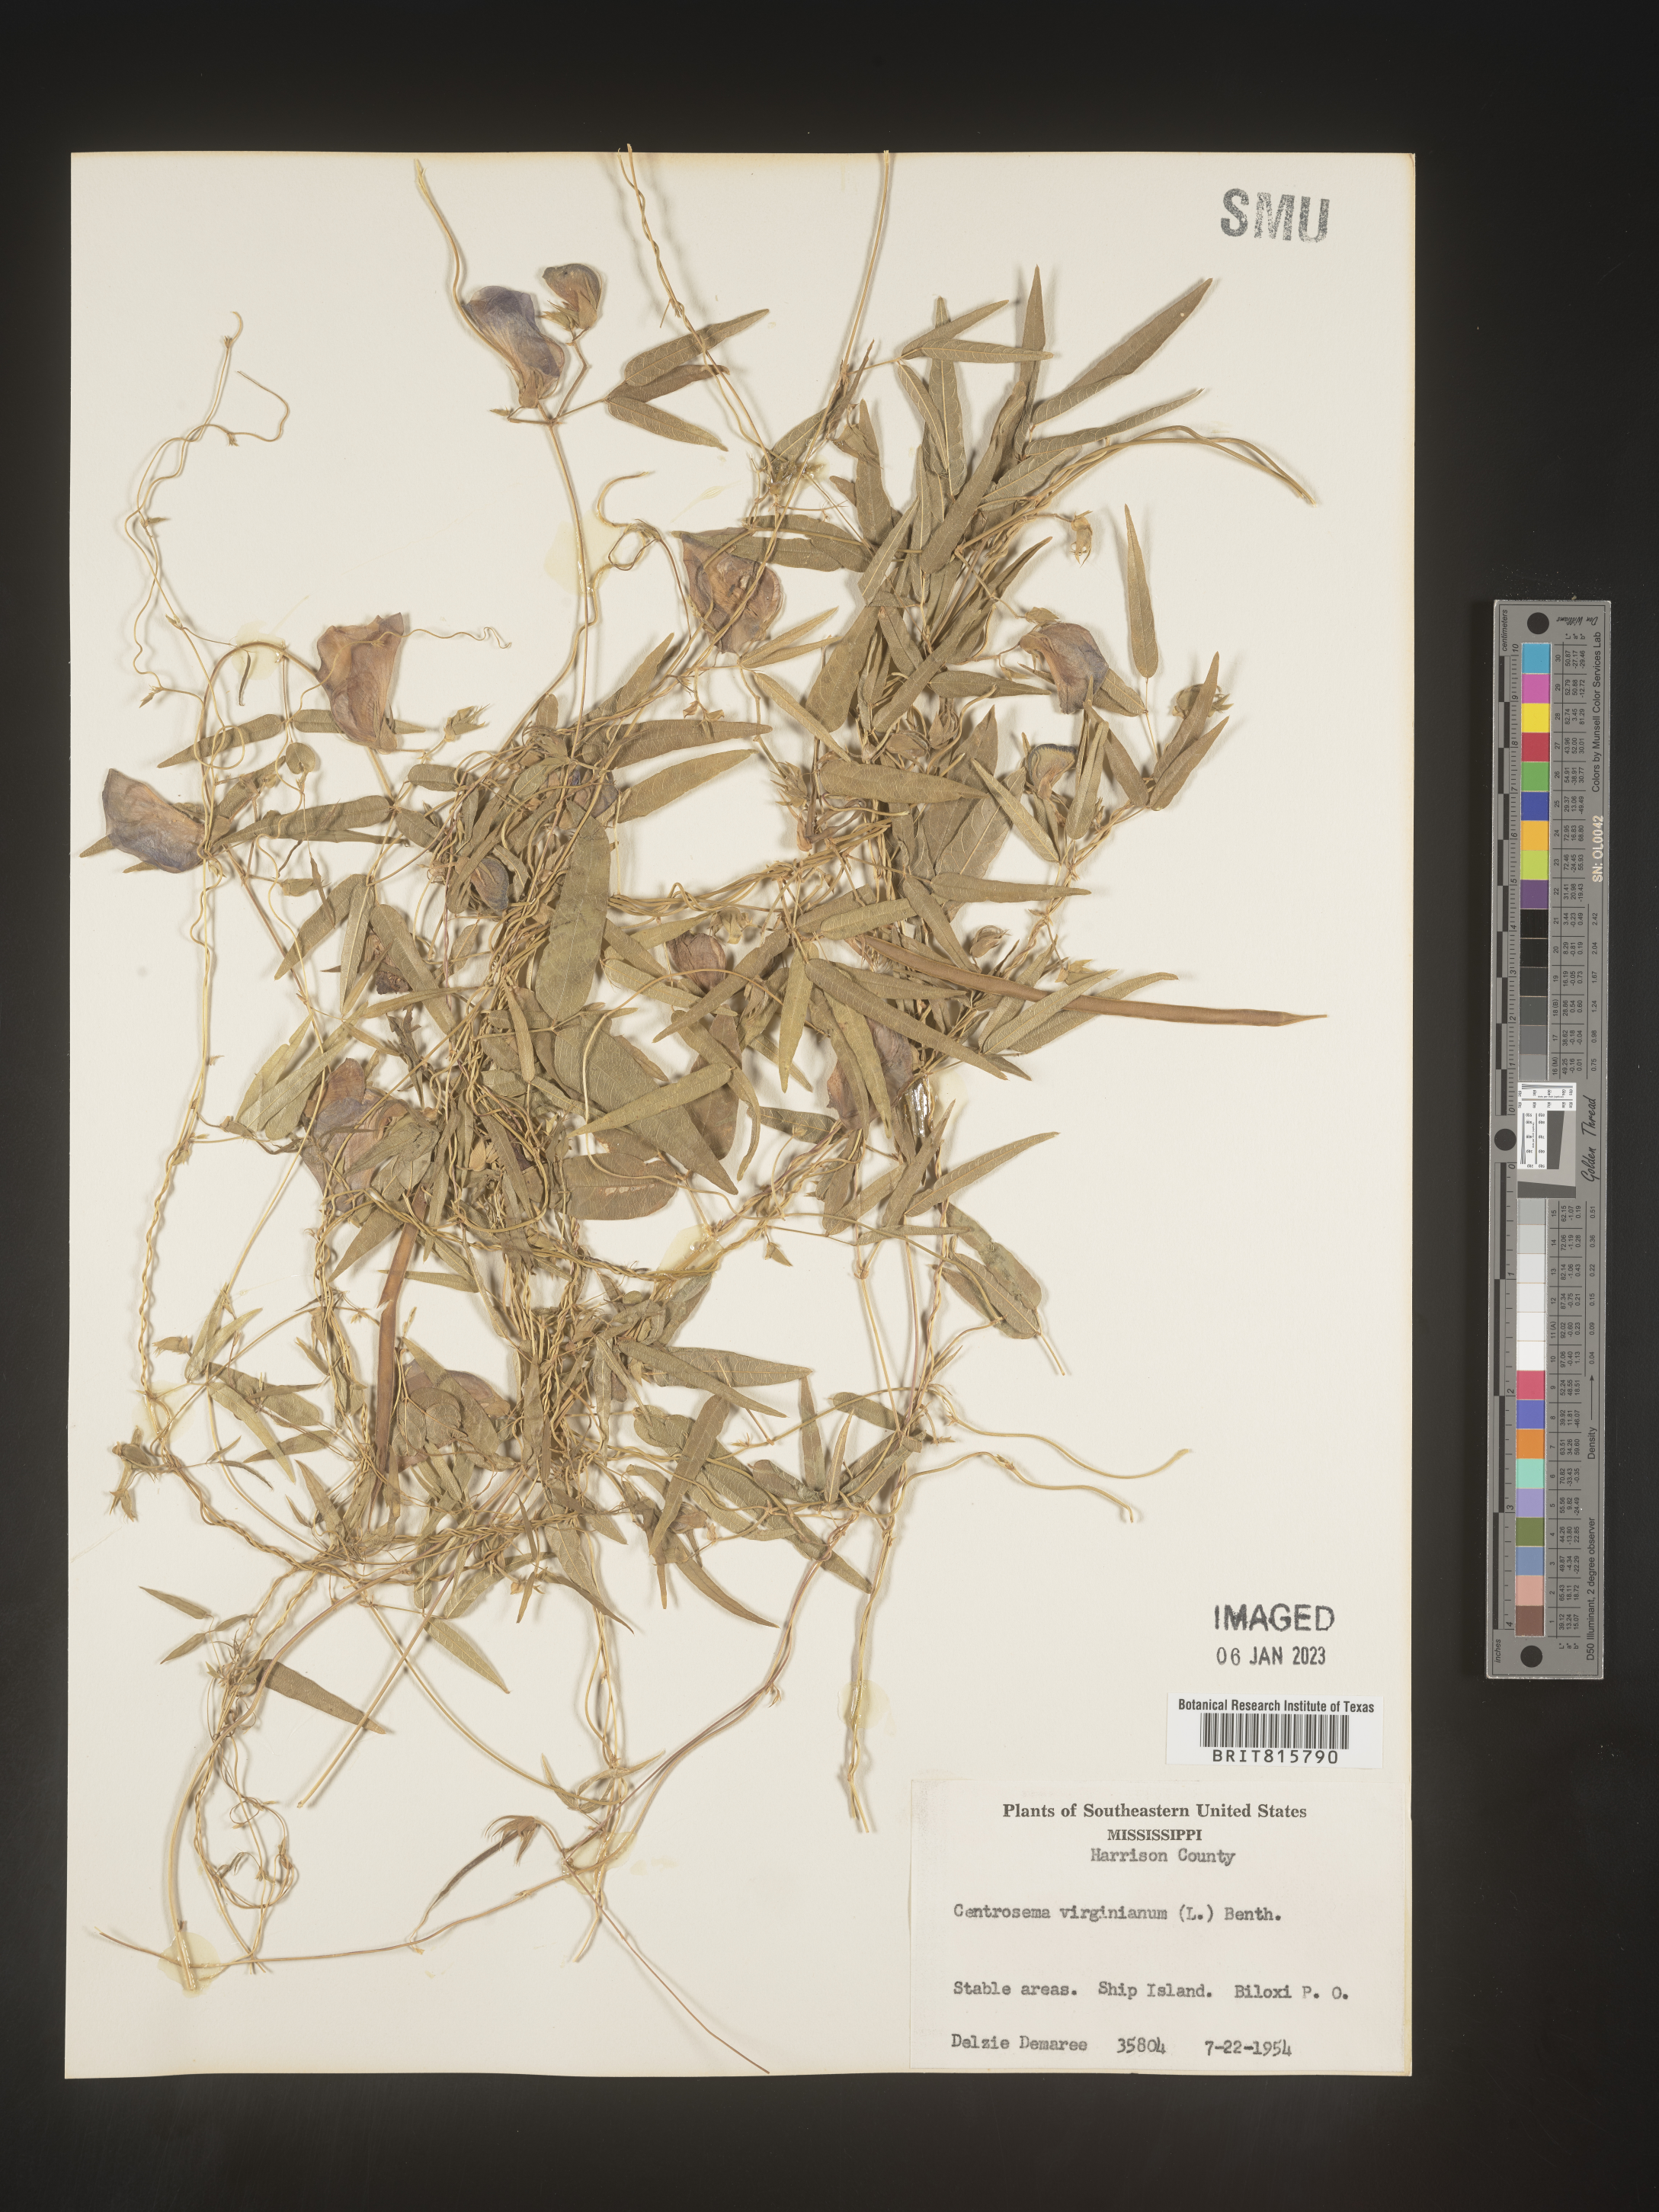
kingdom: Plantae
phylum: Tracheophyta
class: Magnoliopsida
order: Fabales
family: Fabaceae
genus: Centrosema
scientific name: Centrosema virginianum
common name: Butterfly-pea
